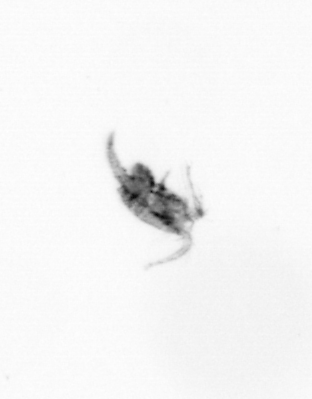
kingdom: Animalia
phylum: Arthropoda
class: Copepoda
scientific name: Copepoda
